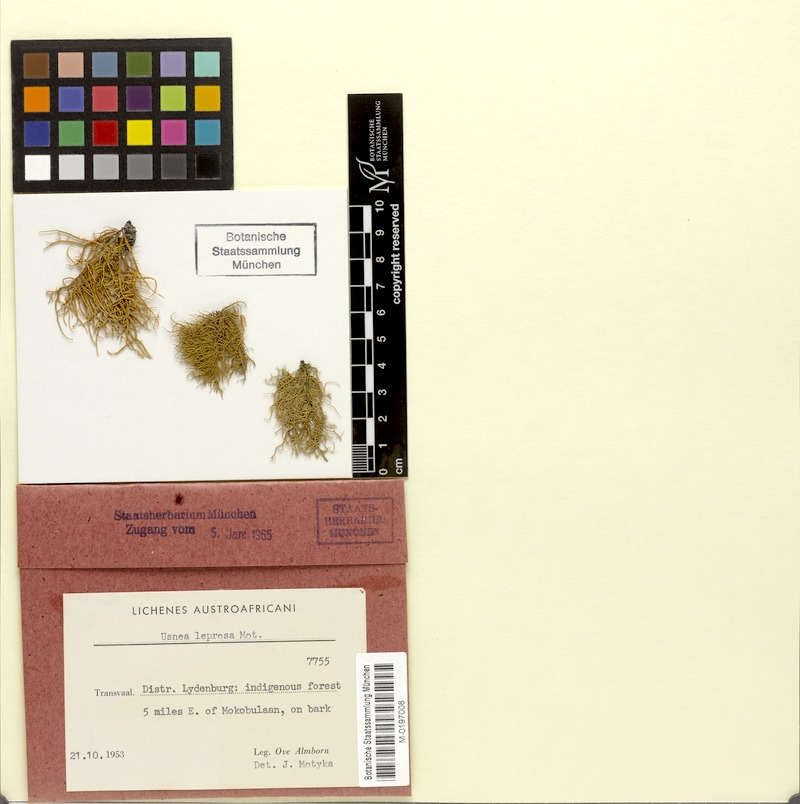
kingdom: Fungi
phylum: Ascomycota
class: Lecanoromycetes
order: Lecanorales
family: Parmeliaceae
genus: Usnea
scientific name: Usnea leprosa
